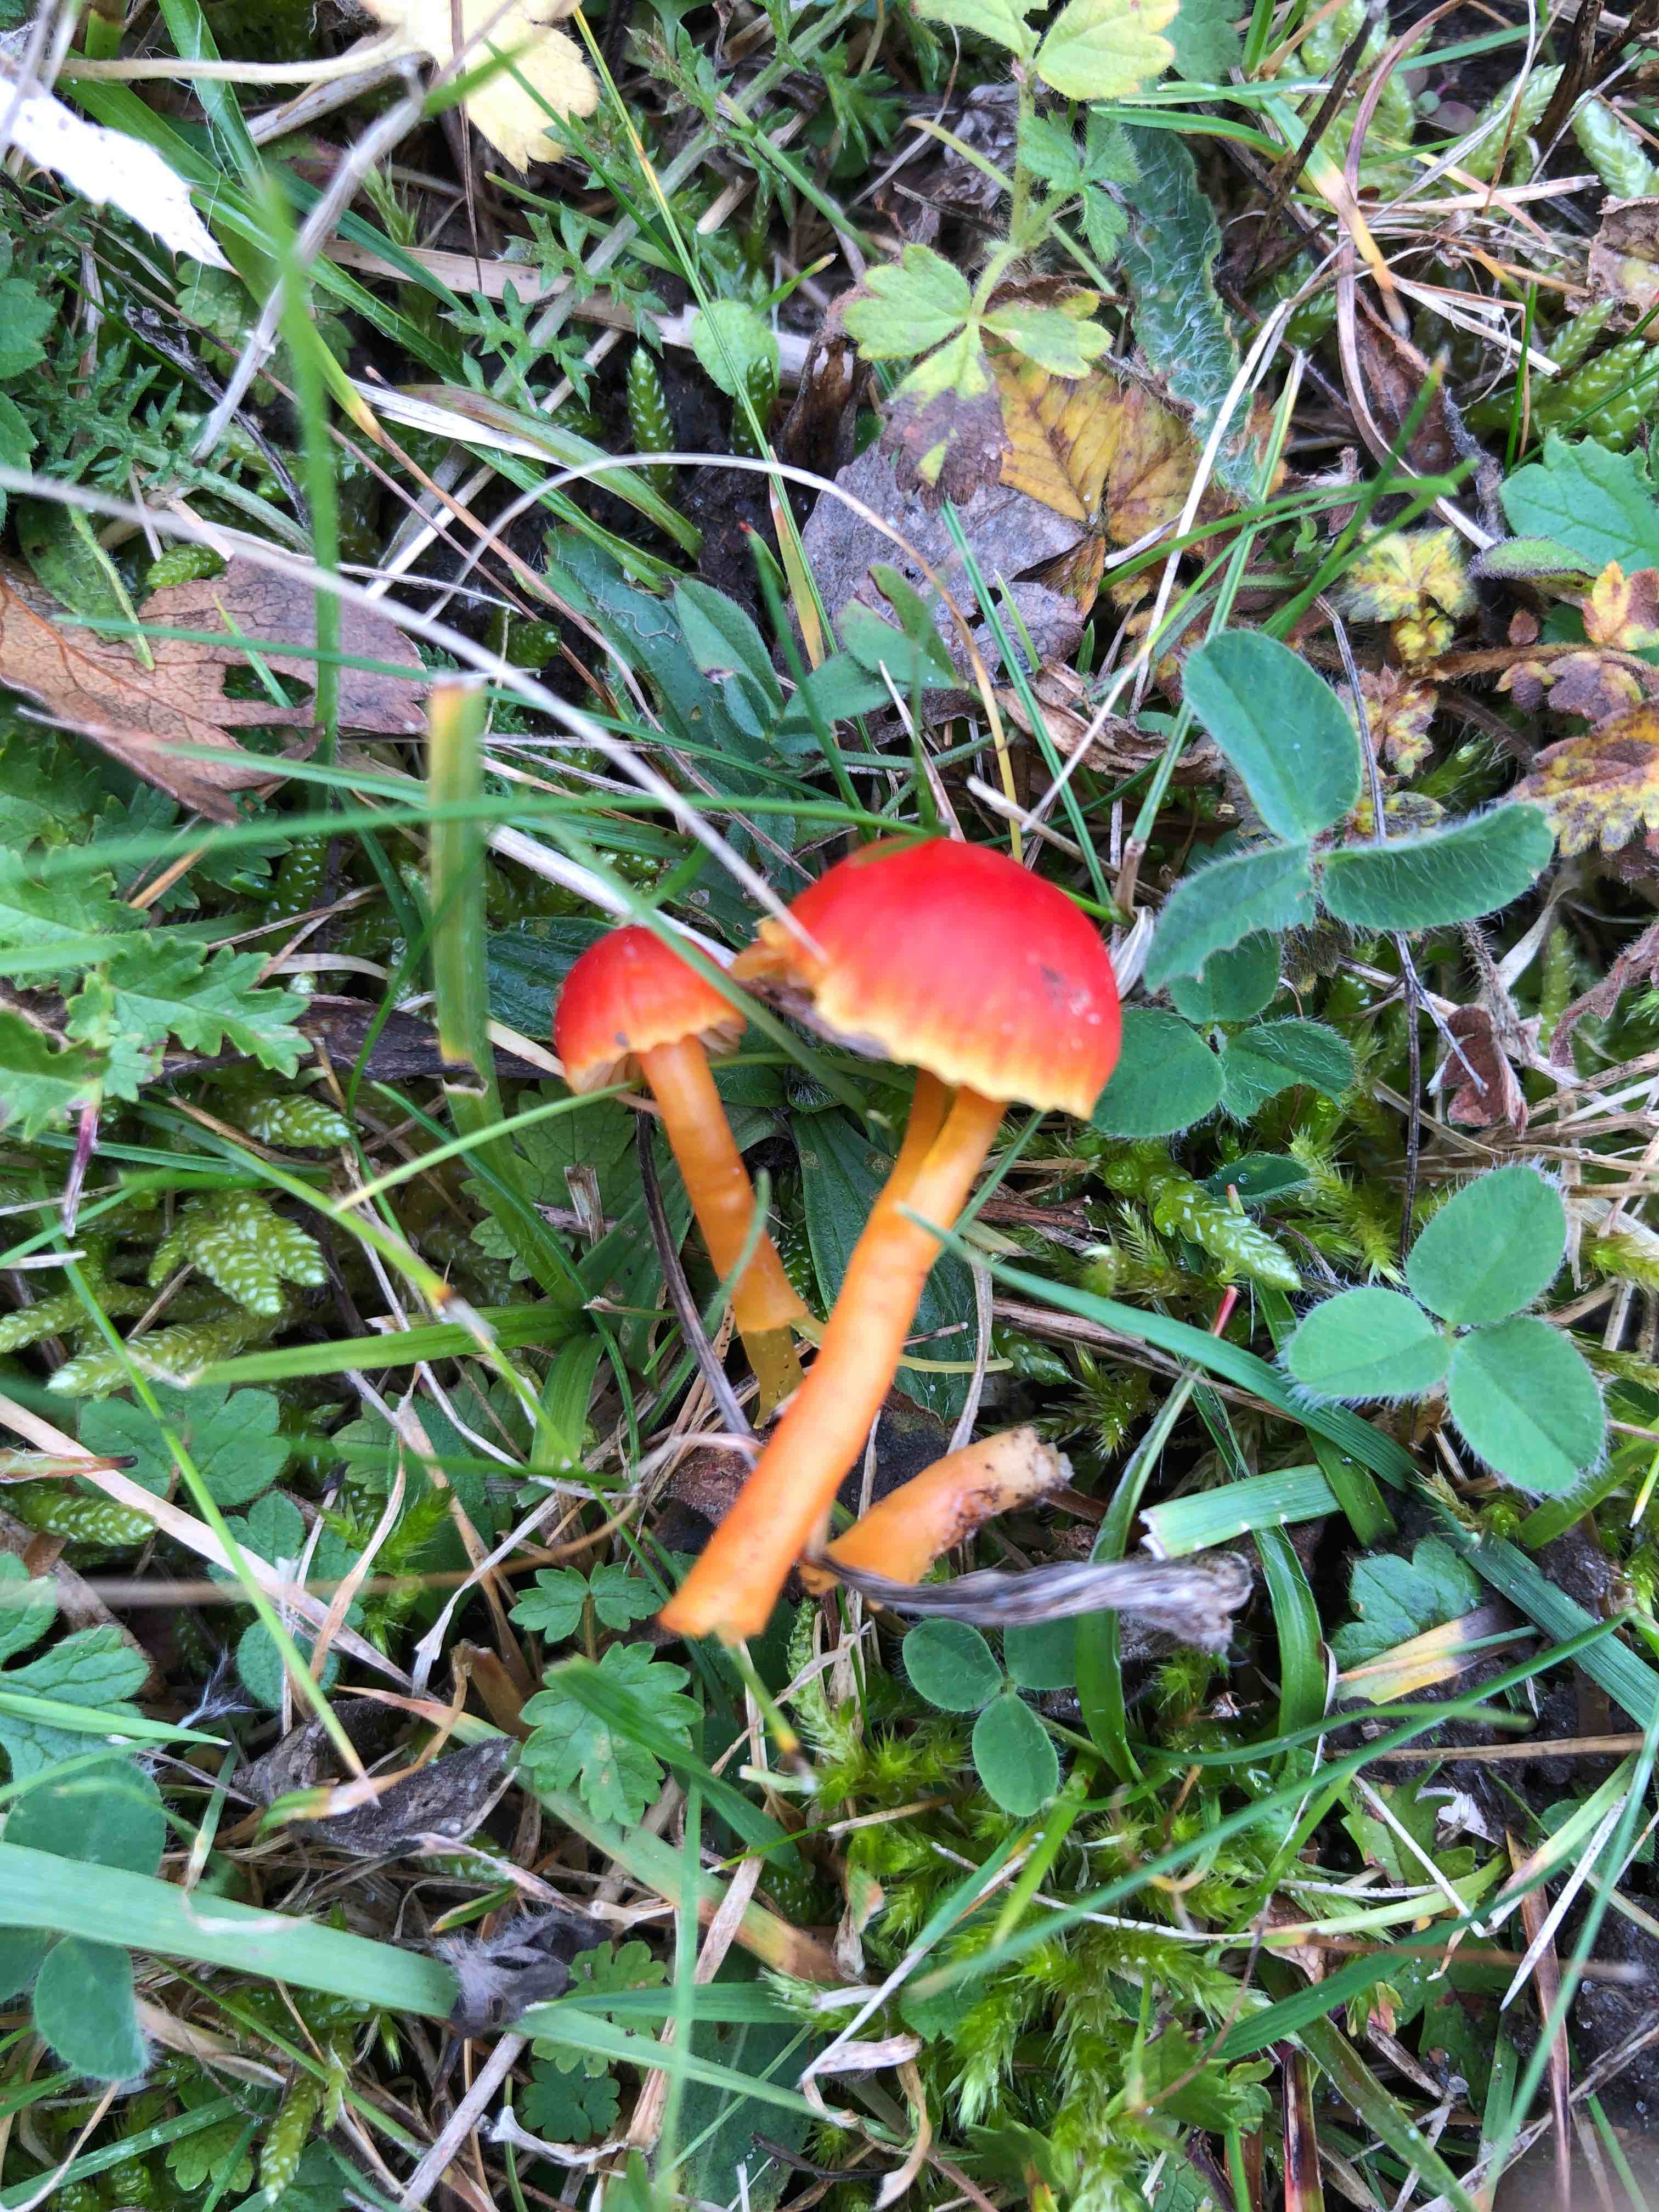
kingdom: Fungi
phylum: Basidiomycota
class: Agaricomycetes
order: Agaricales
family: Hygrophoraceae
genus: Hygrocybe
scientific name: Hygrocybe mucronella
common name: bitter vokshat
